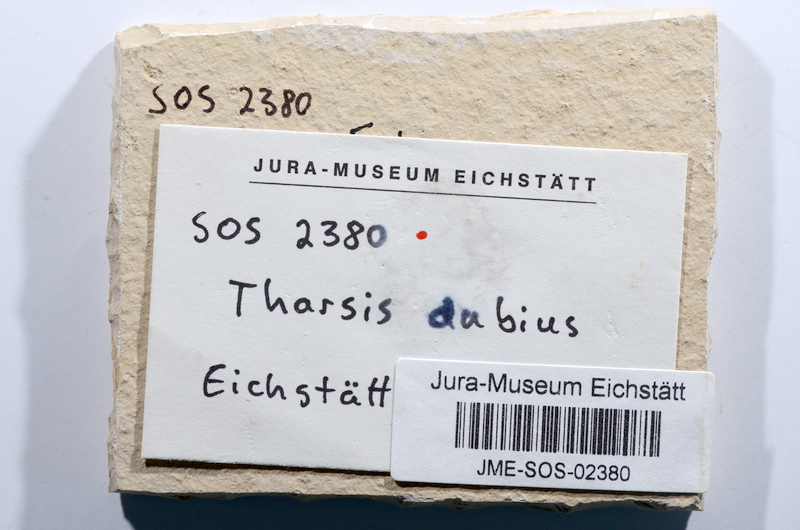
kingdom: Animalia
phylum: Chordata
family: Ascalaboidae
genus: Tharsis
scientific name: Tharsis dubius
